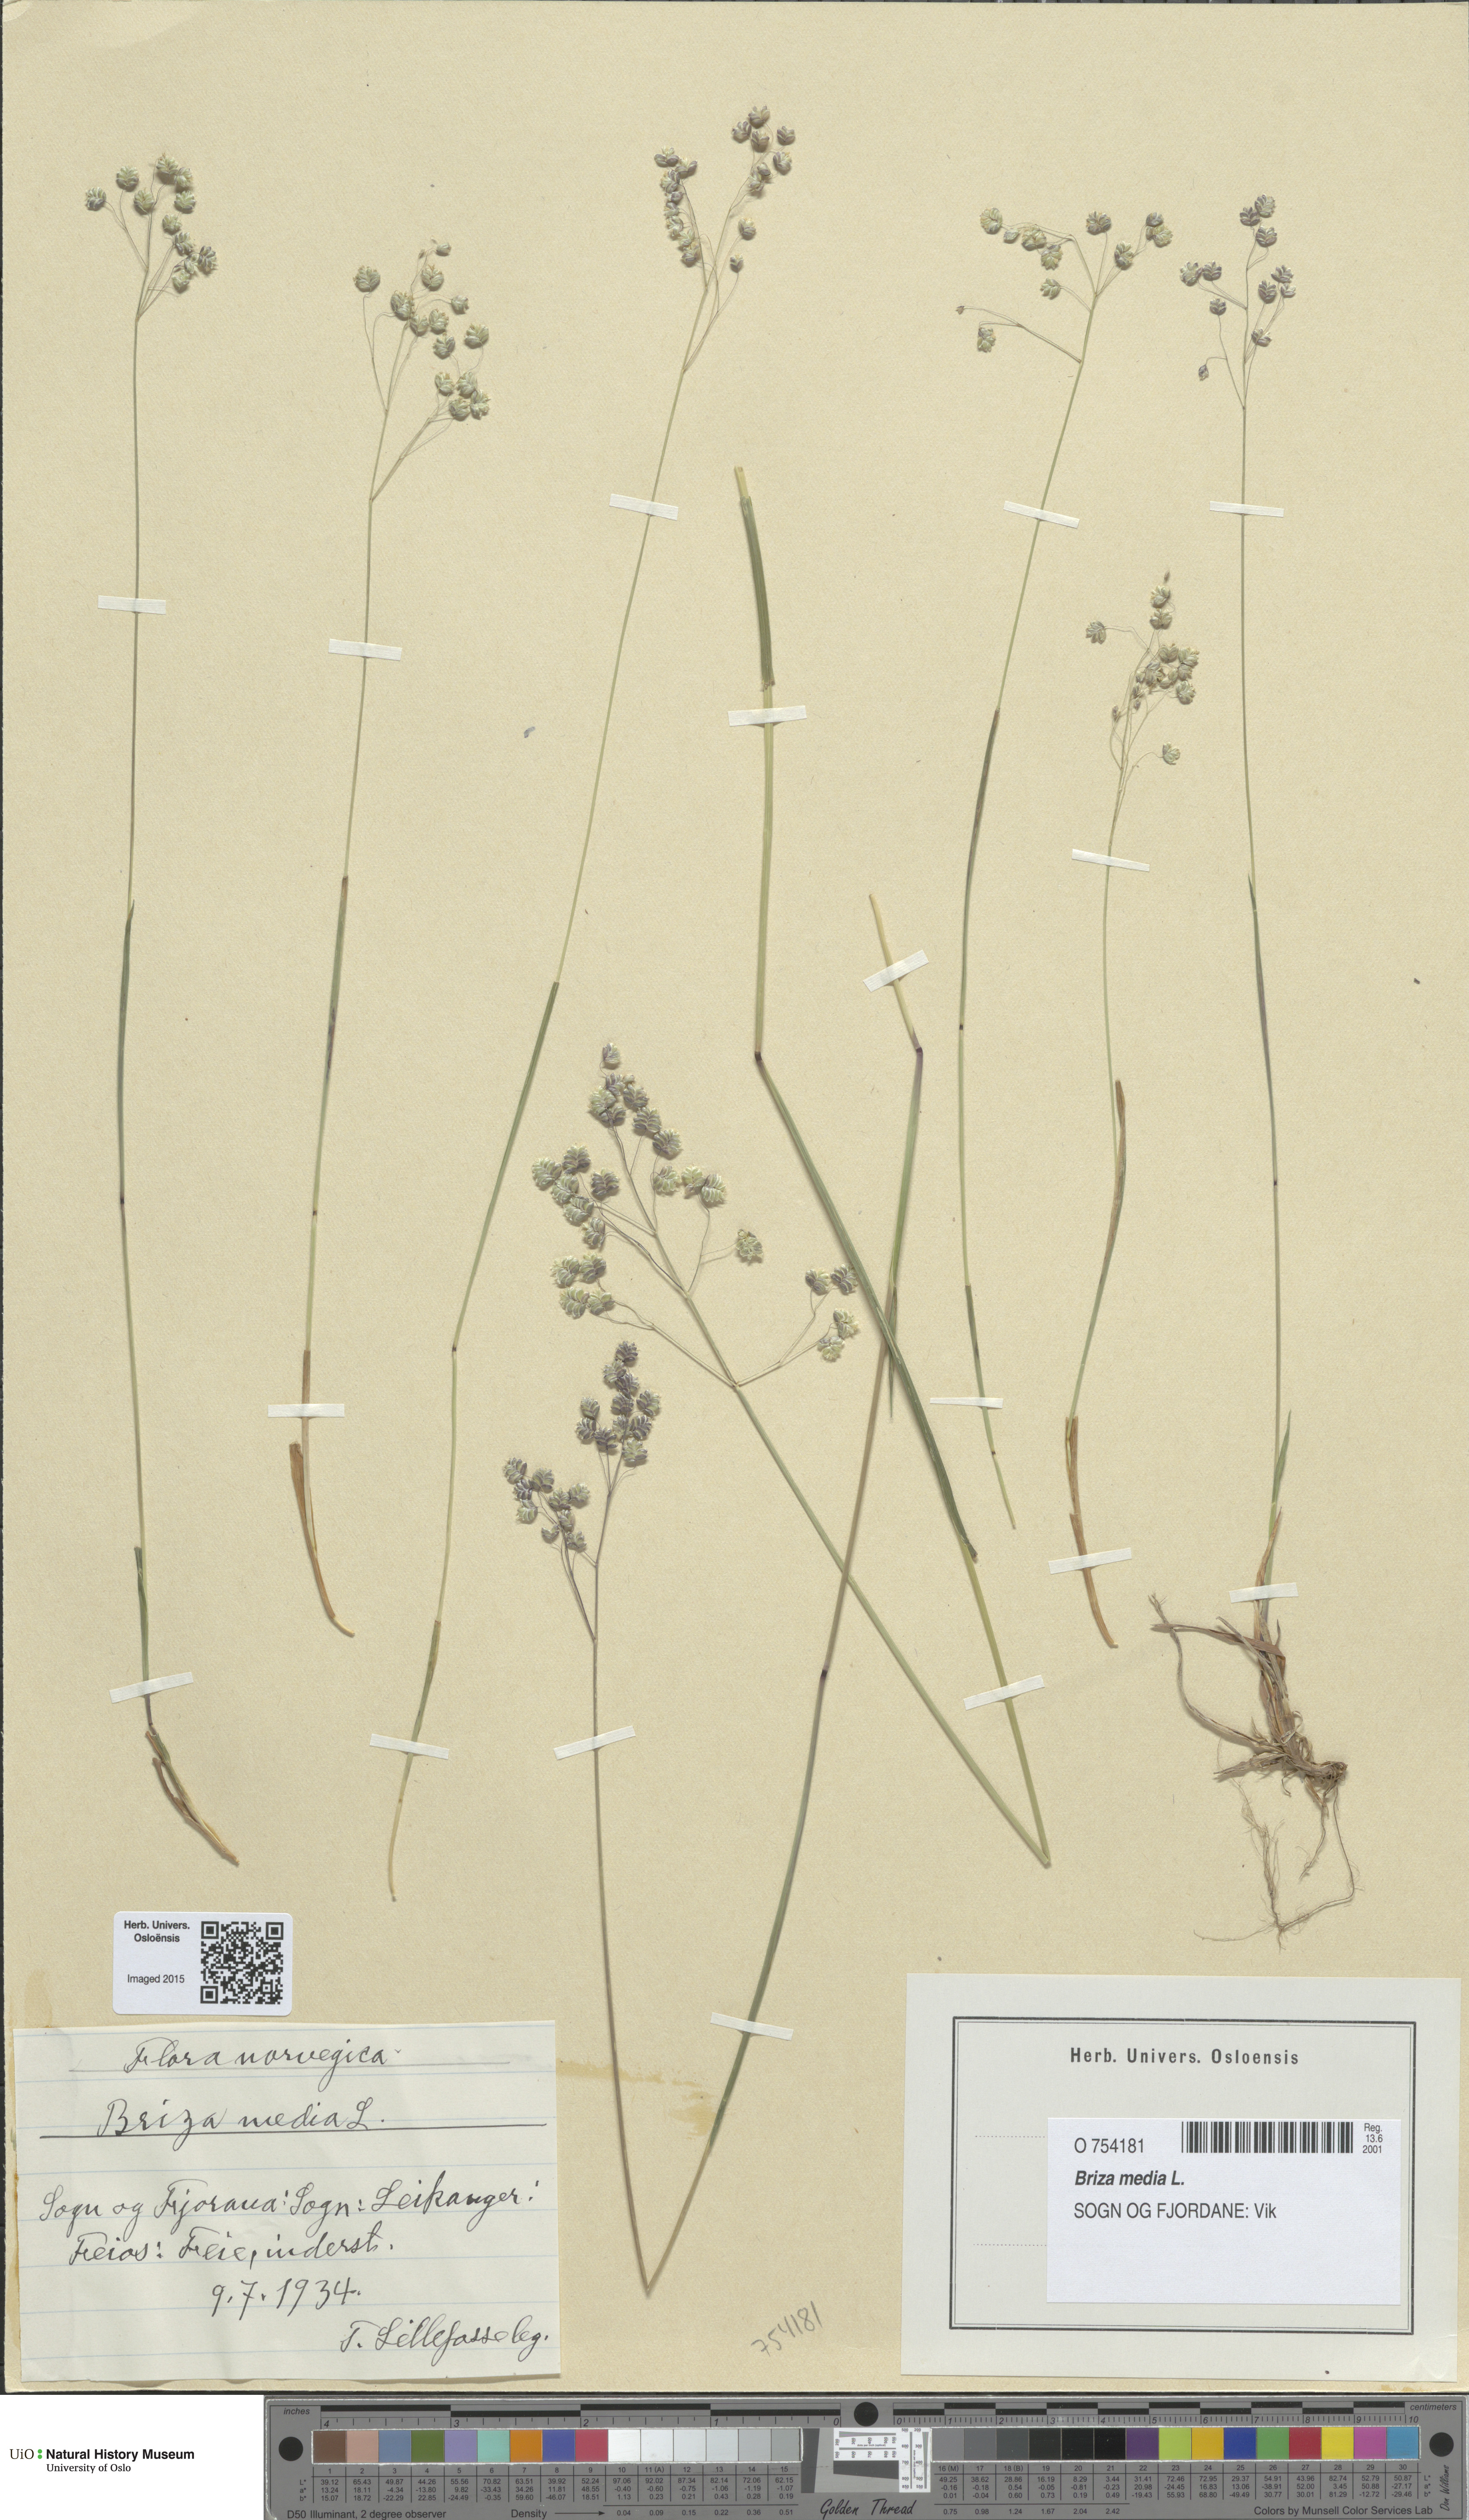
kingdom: Plantae
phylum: Tracheophyta
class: Liliopsida
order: Poales
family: Poaceae
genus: Briza
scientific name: Briza media
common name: Quaking grass
